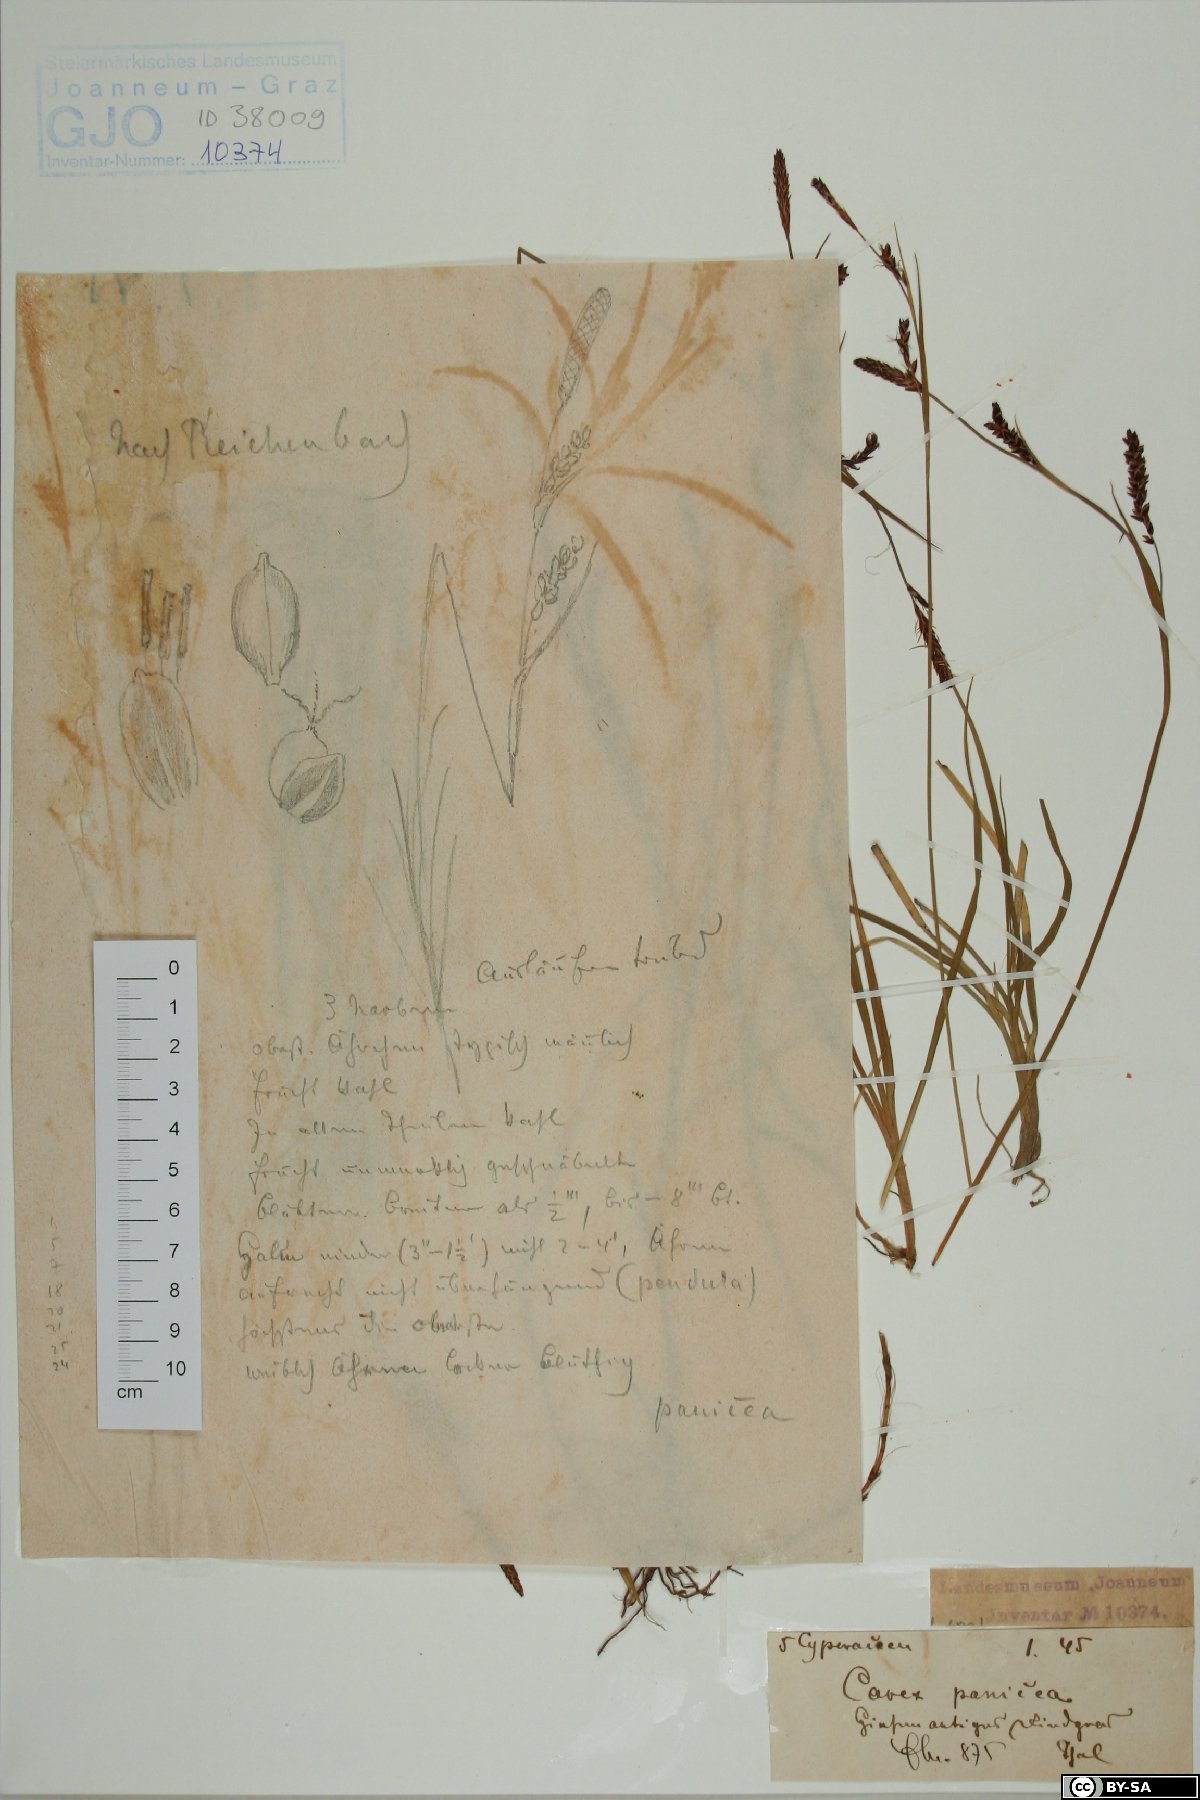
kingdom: Plantae
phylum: Tracheophyta
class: Liliopsida
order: Poales
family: Cyperaceae
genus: Carex
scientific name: Carex panicea
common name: Carnation sedge
